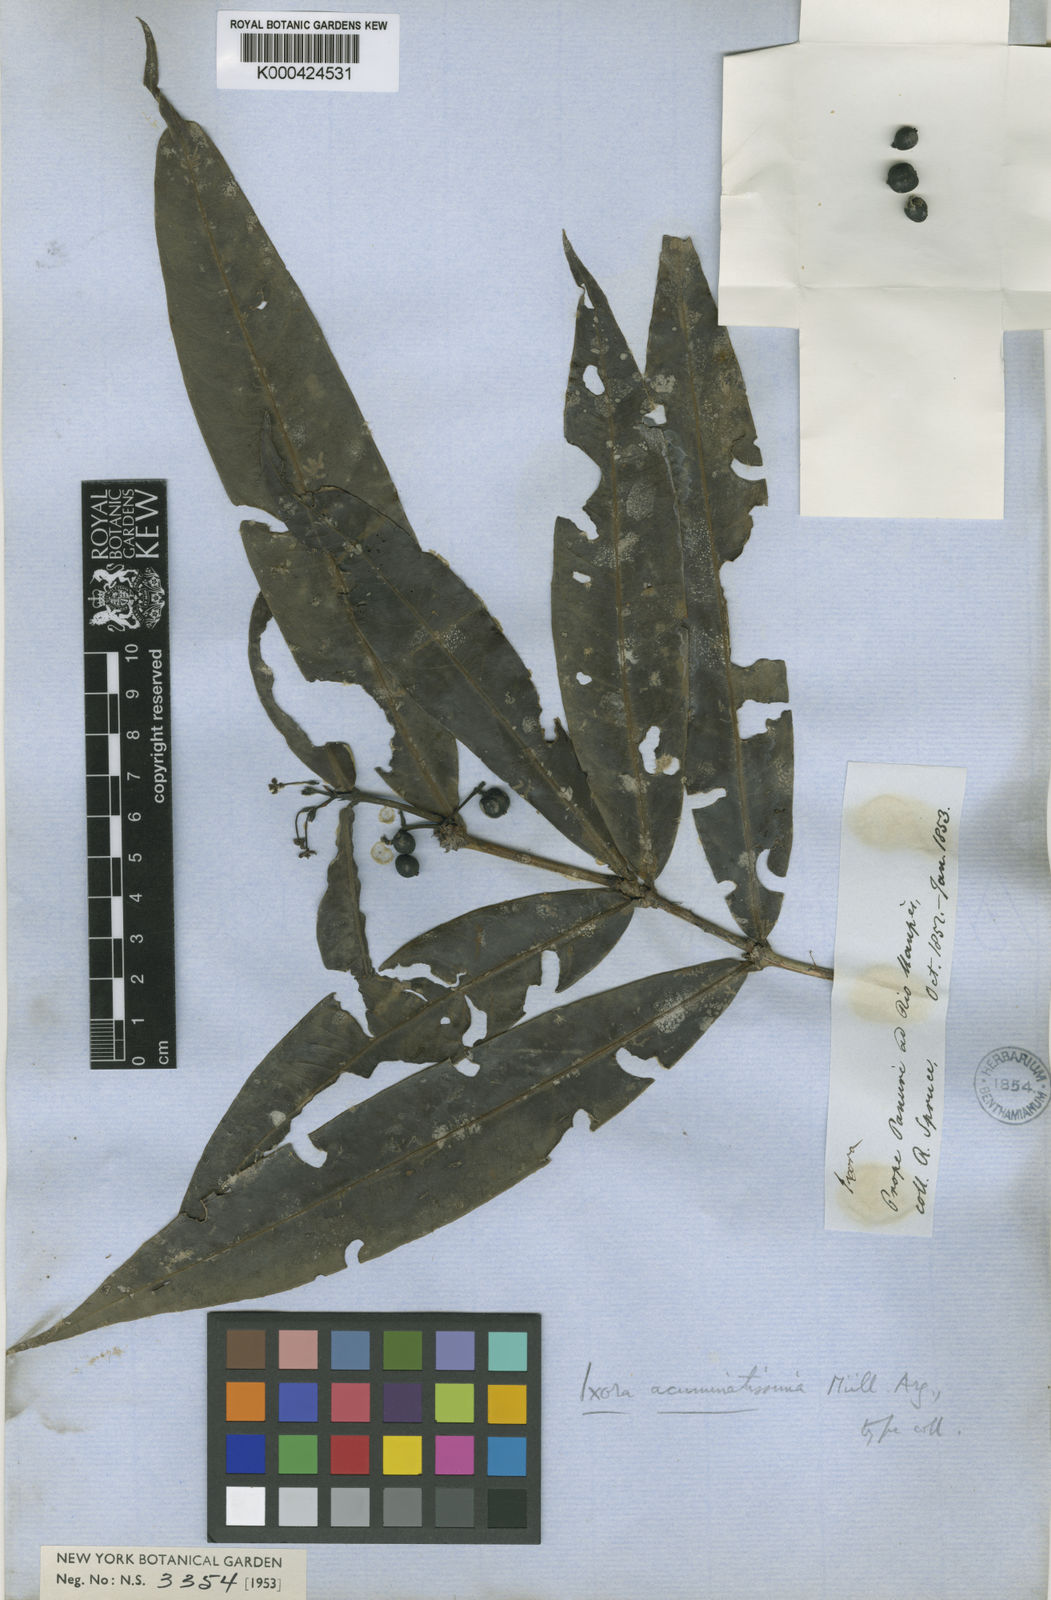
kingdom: Plantae
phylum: Tracheophyta
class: Magnoliopsida
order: Gentianales
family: Rubiaceae
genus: Ixora
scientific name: Ixora
